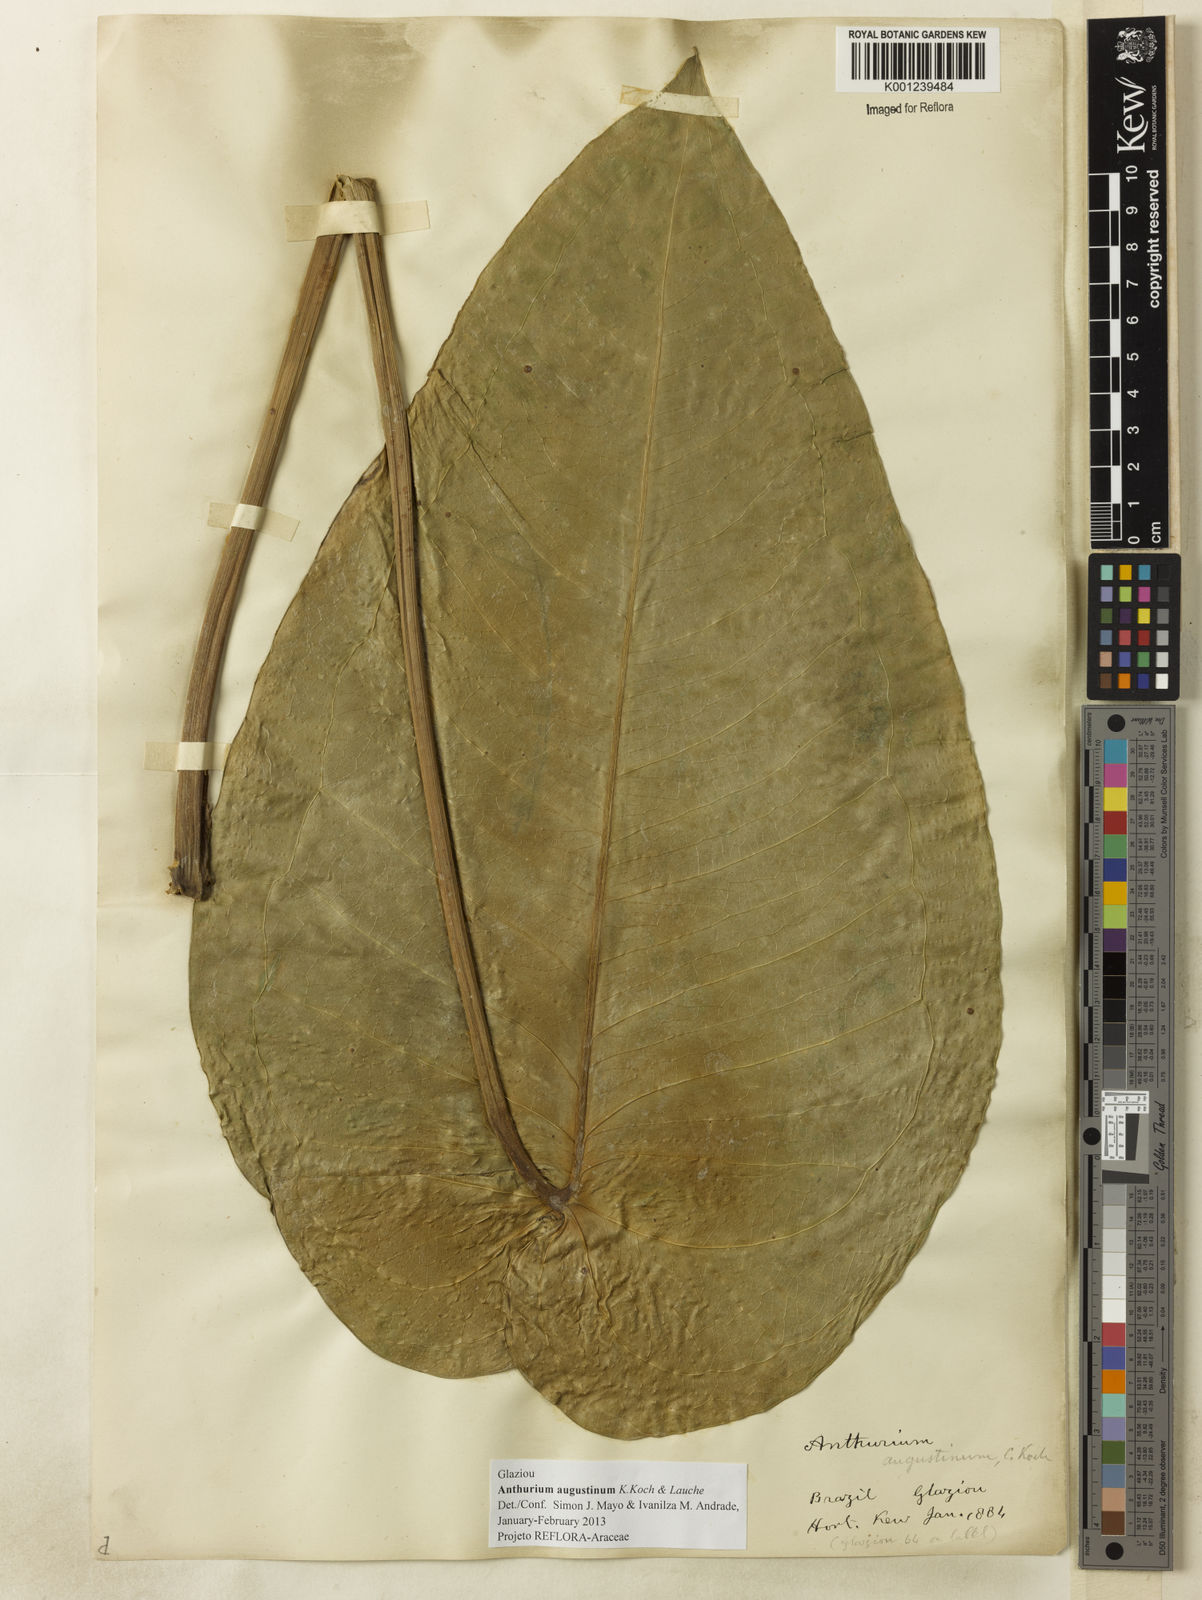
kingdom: Plantae
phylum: Tracheophyta
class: Liliopsida
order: Alismatales
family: Araceae
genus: Anthurium
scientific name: Anthurium augustinum
